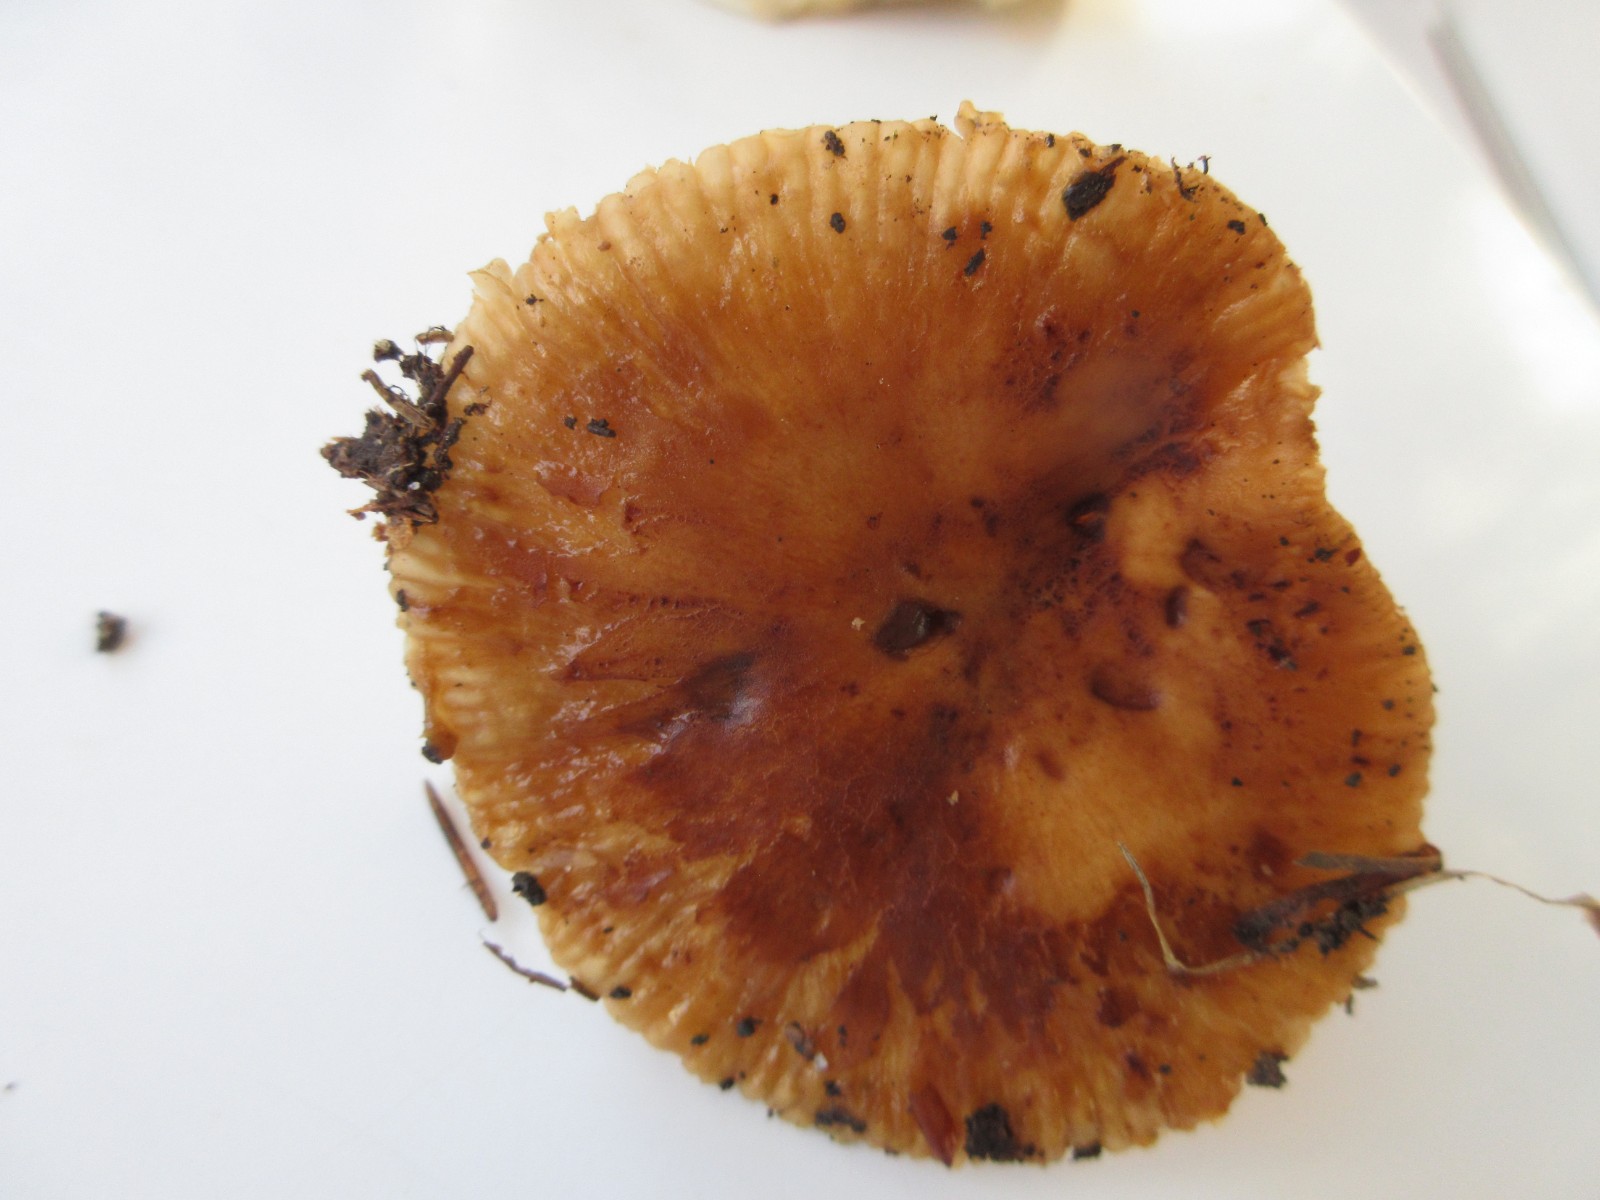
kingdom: Fungi
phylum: Basidiomycota
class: Agaricomycetes
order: Russulales
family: Russulaceae
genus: Russula
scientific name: Russula grata
